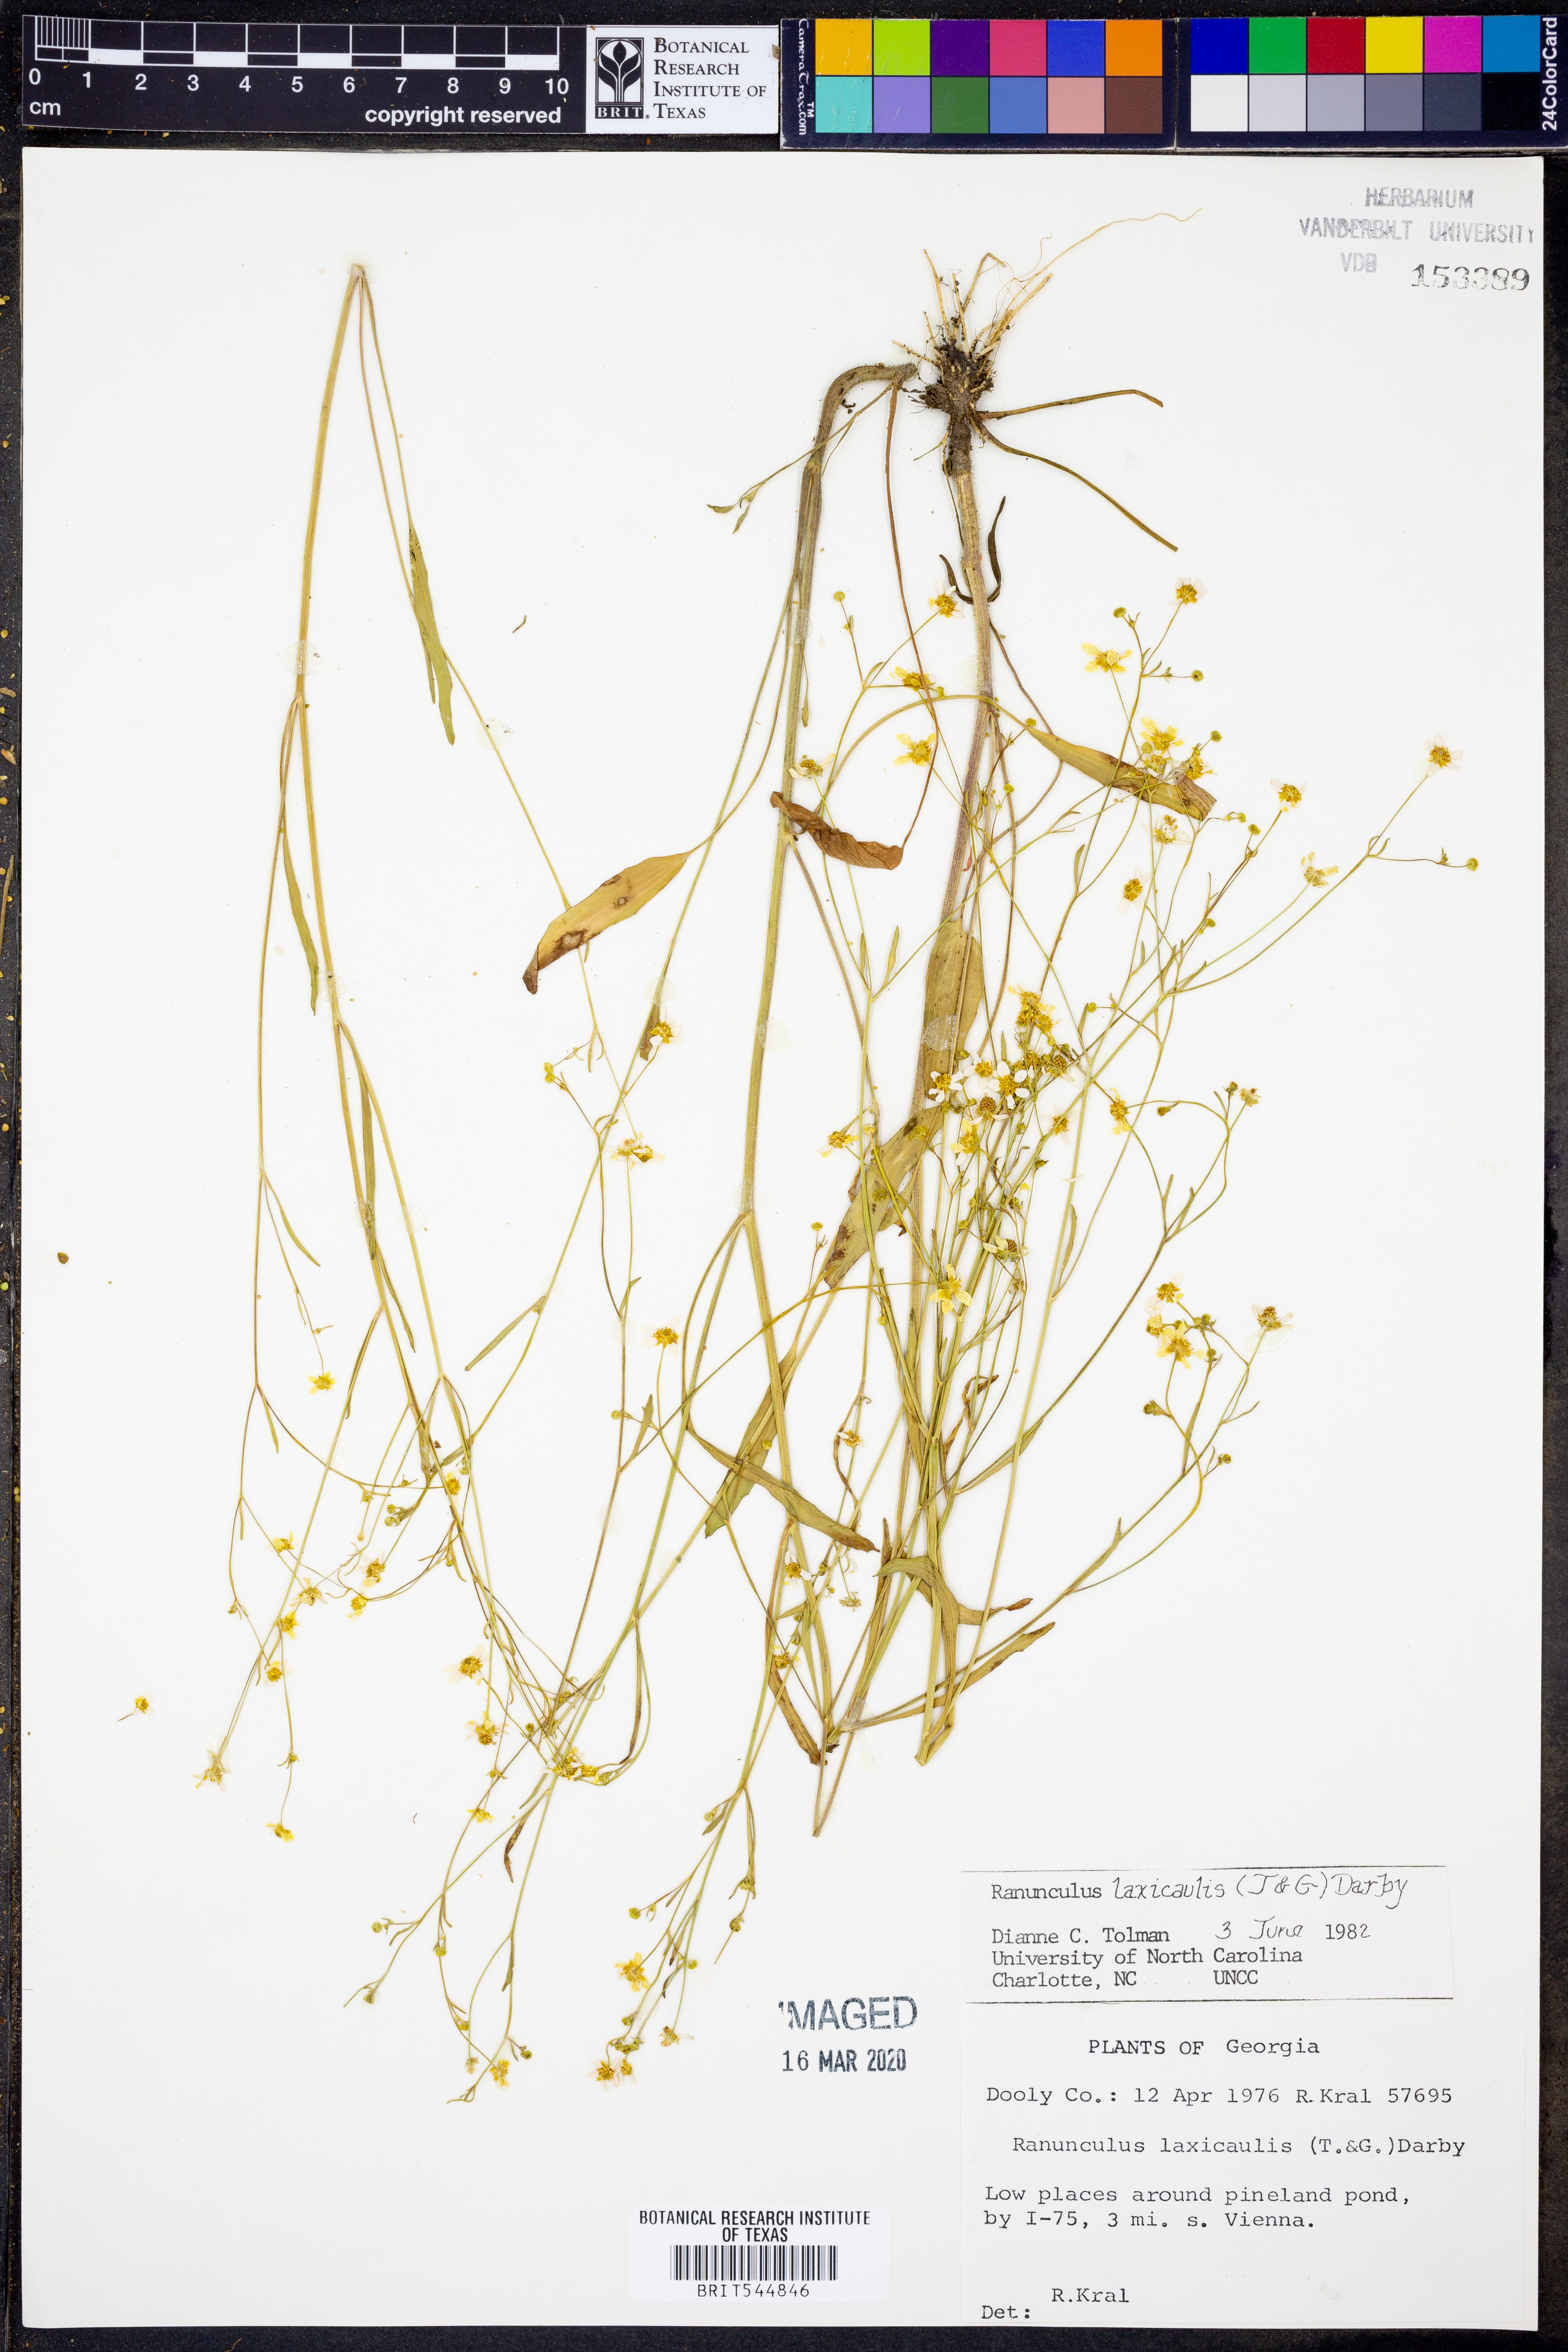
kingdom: Plantae
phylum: Tracheophyta
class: Magnoliopsida
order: Ranunculales
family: Ranunculaceae
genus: Ranunculus
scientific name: Ranunculus laxicaulis
